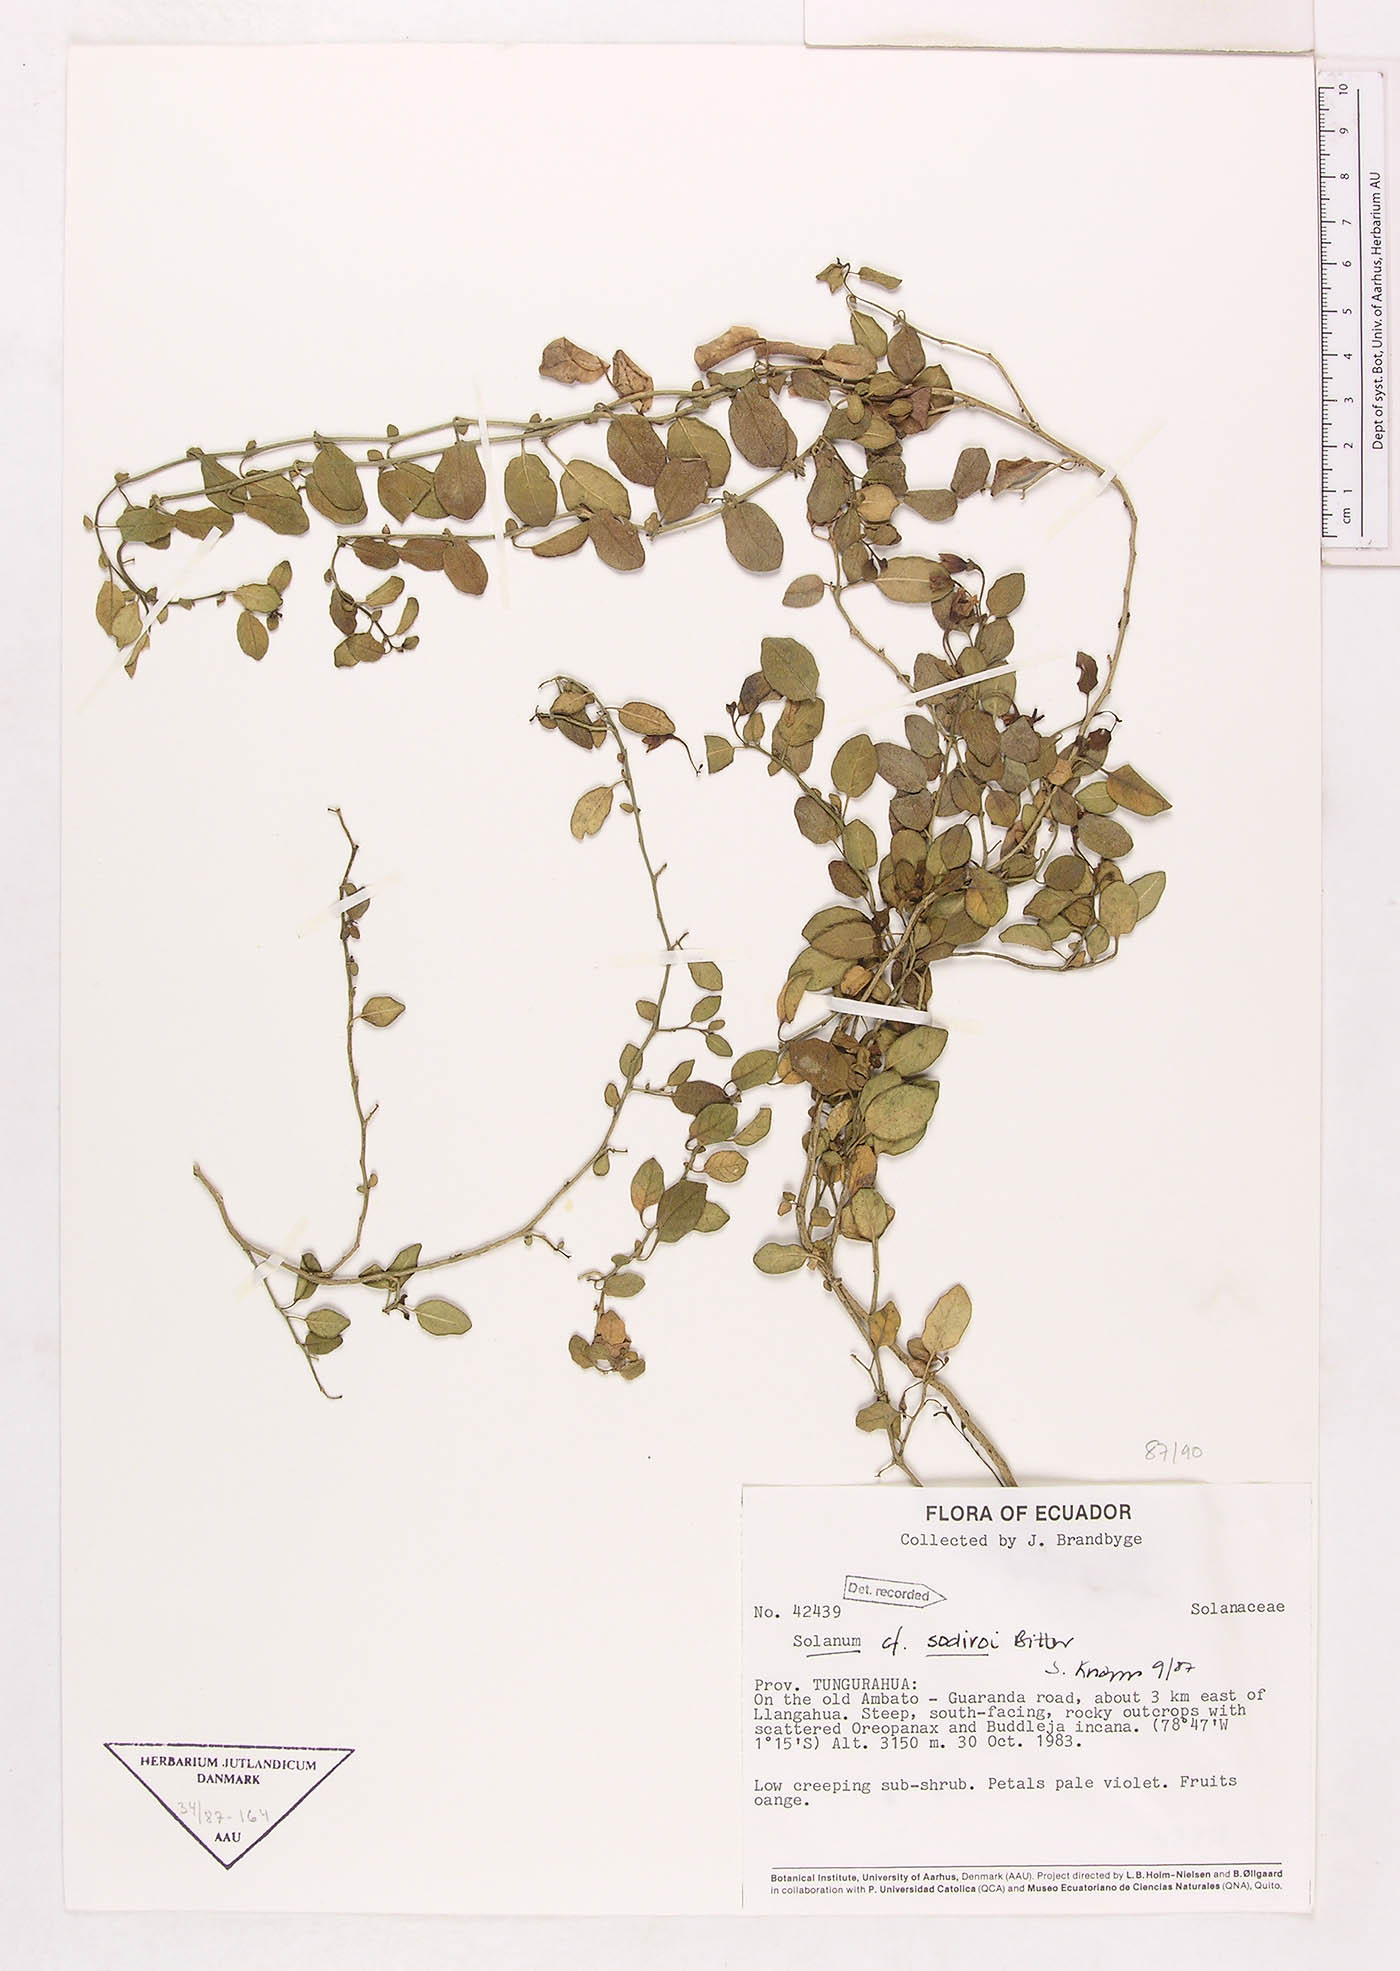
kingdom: Plantae
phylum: Tracheophyta
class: Magnoliopsida
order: Solanales
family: Solanaceae
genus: Solanum
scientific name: Solanum sodiroi
